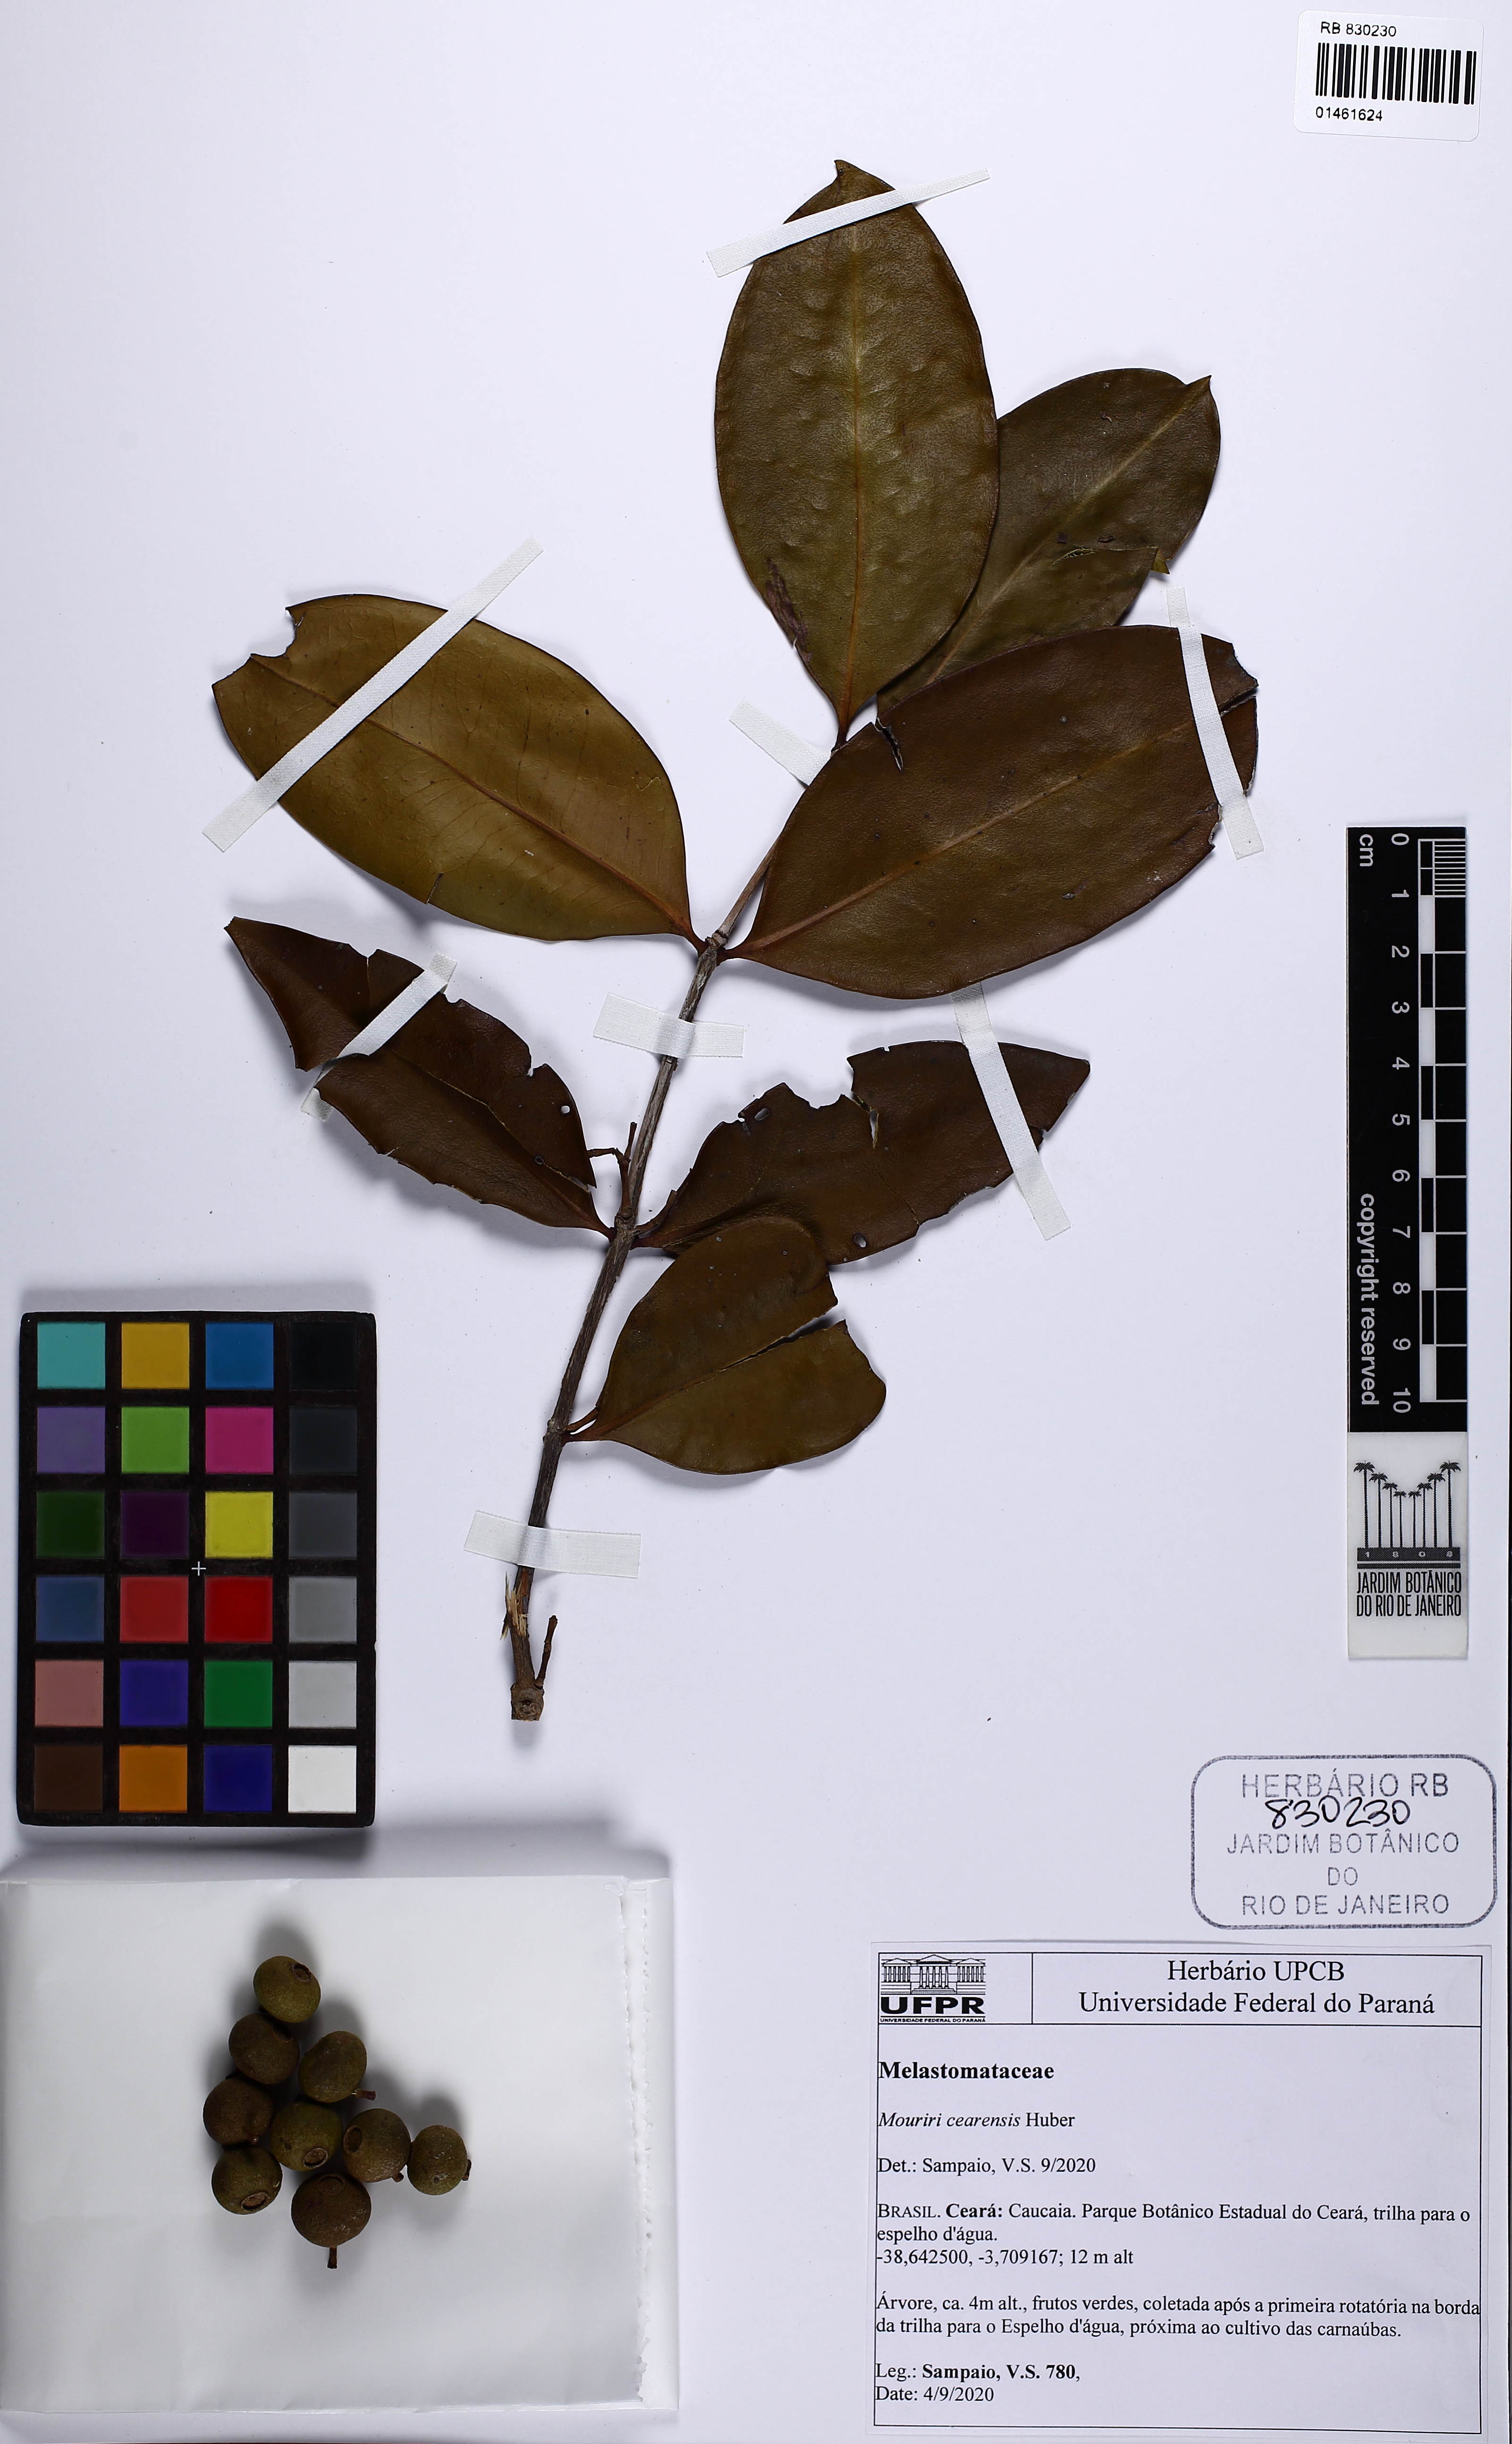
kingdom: Plantae
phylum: Tracheophyta
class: Magnoliopsida
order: Myrtales
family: Melastomataceae
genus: Mouriri
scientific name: Mouriri cearensis
